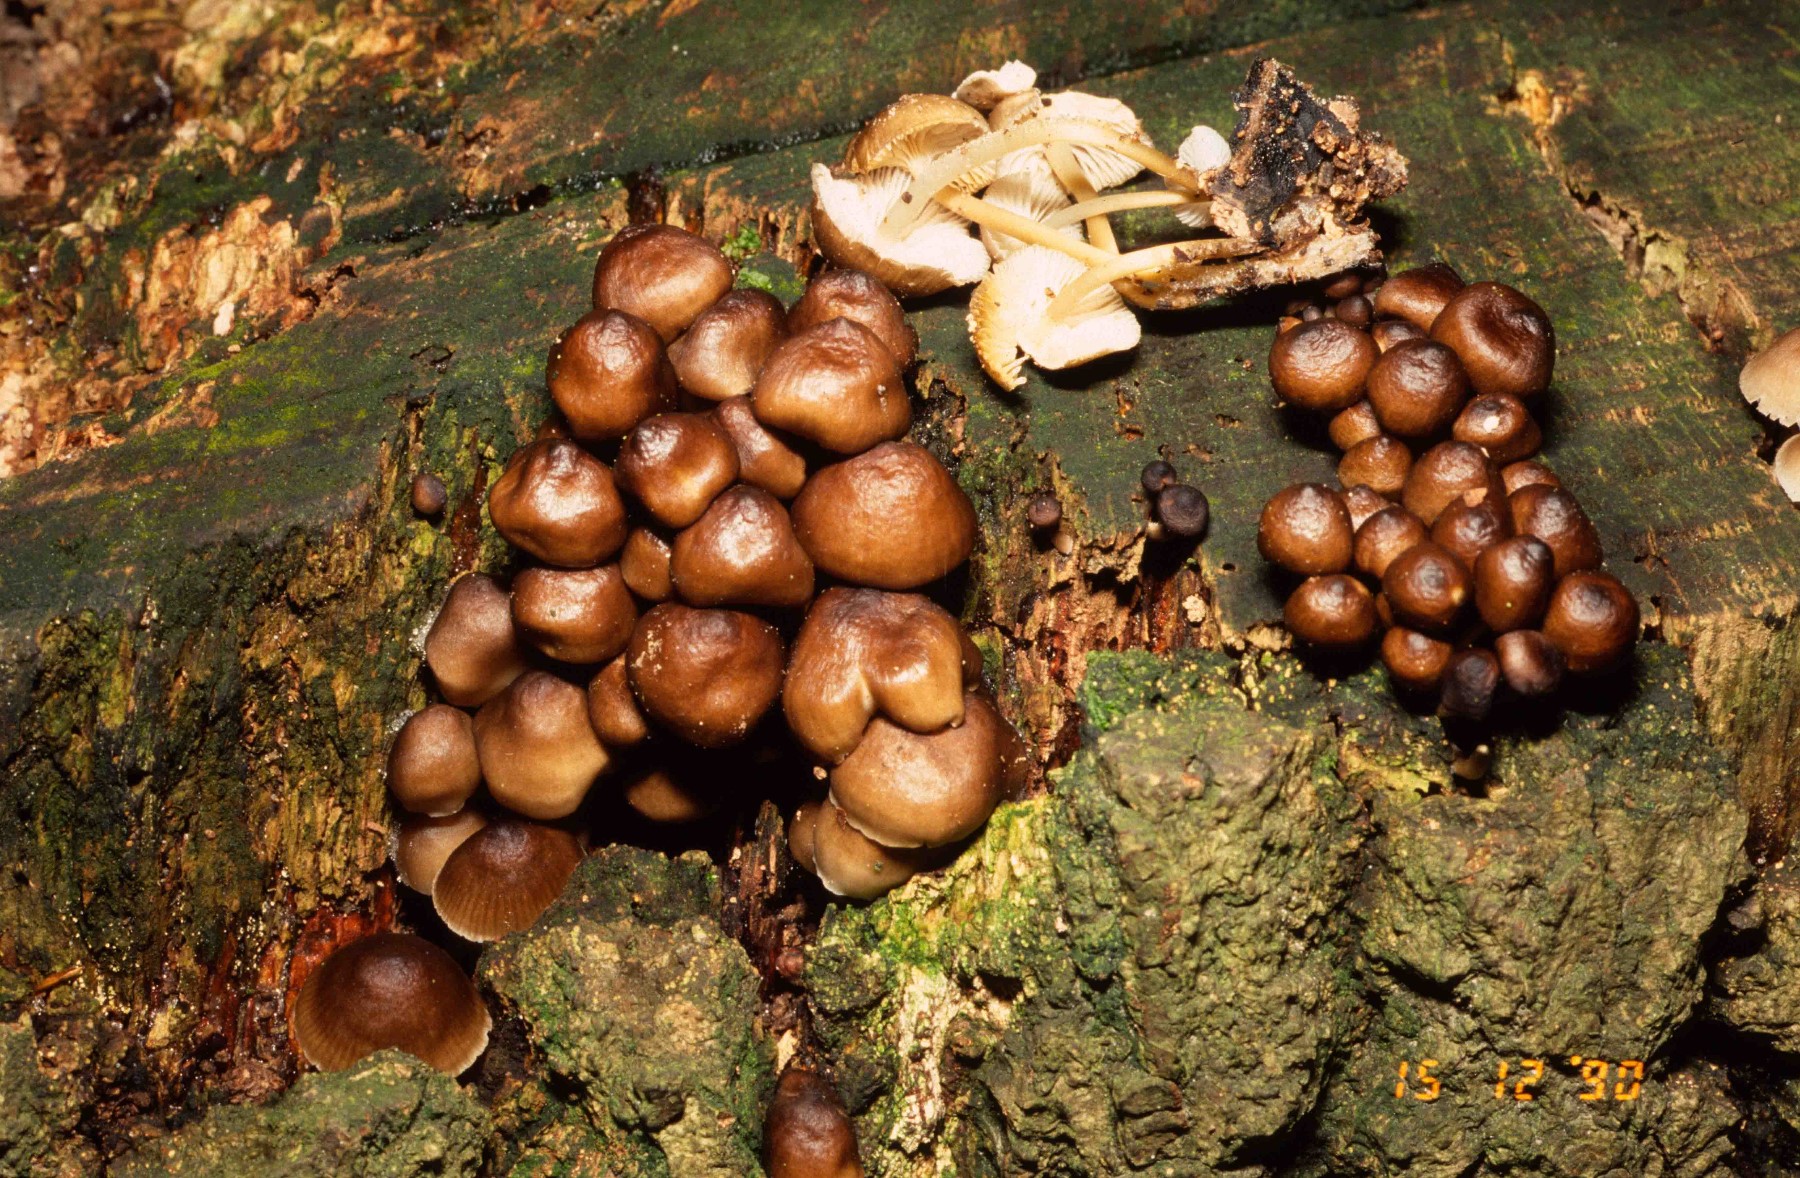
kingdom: Fungi
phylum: Basidiomycota
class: Agaricomycetes
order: Agaricales
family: Mycenaceae
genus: Mycena
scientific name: Mycena tintinnabulum
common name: vinter-huesvamp
